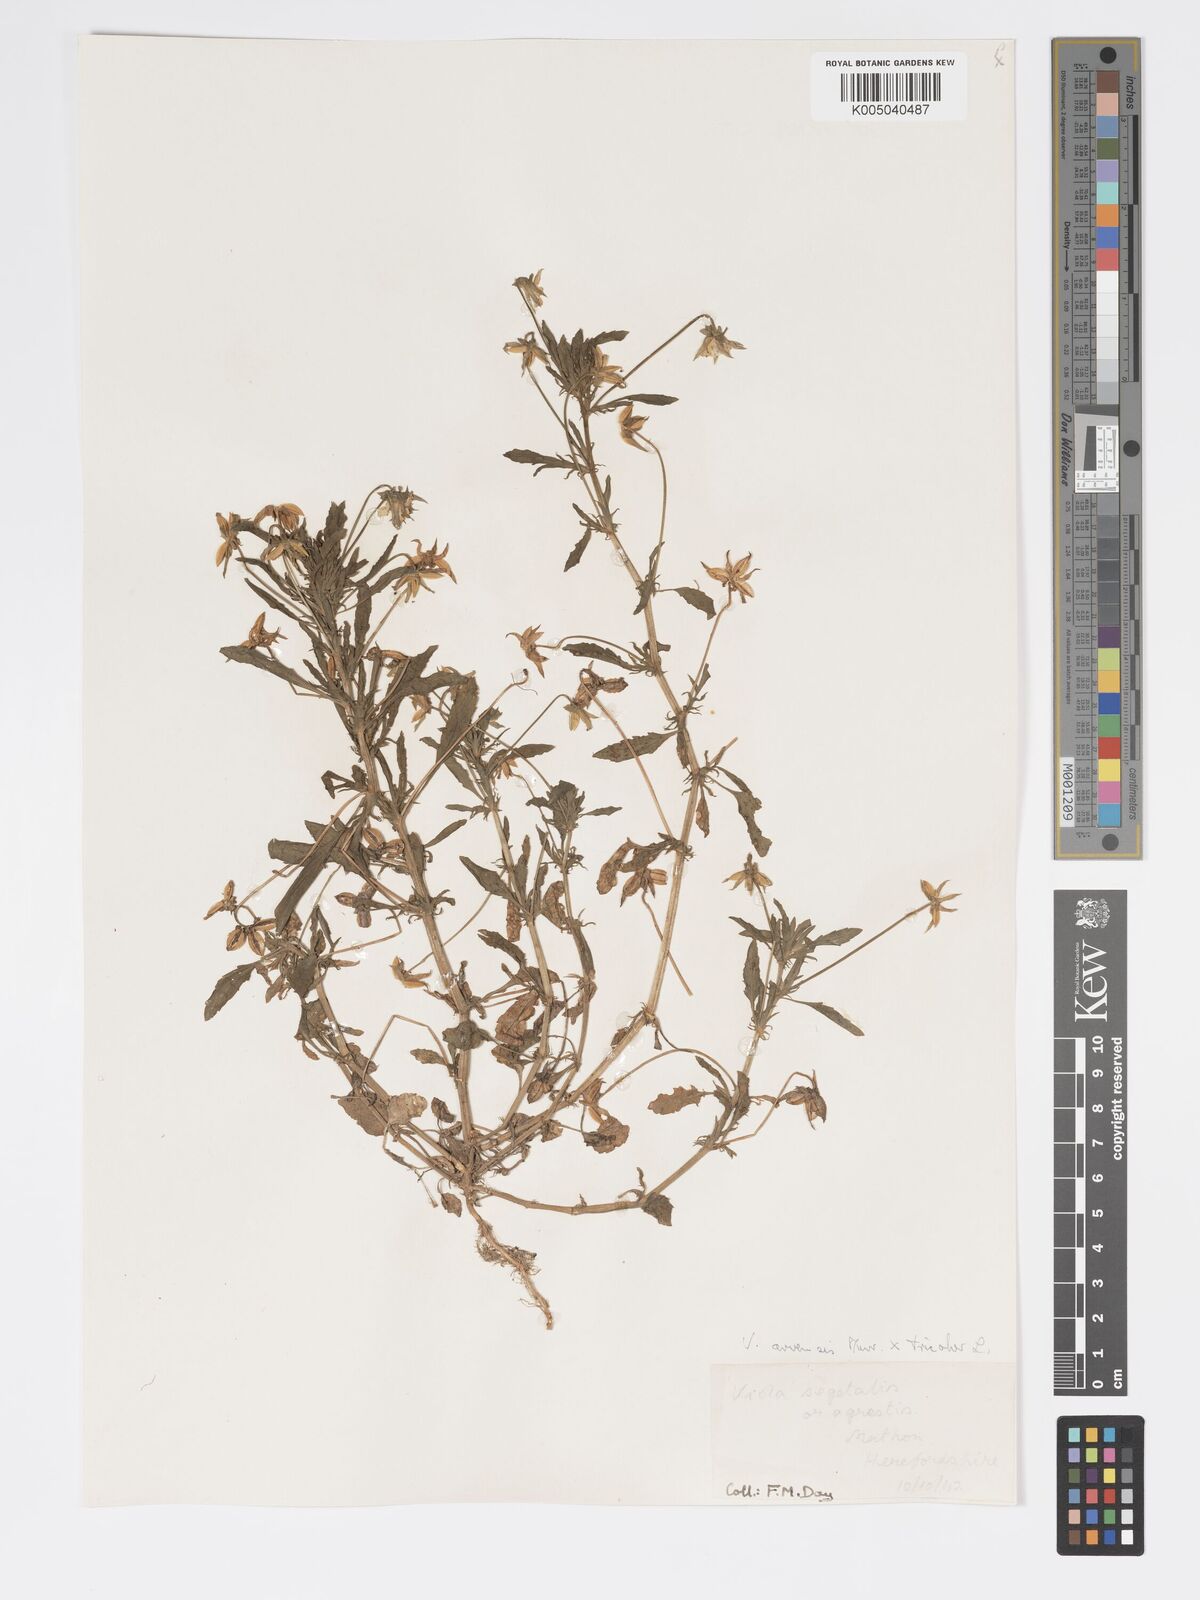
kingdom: Plantae
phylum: Tracheophyta
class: Magnoliopsida
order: Malpighiales
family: Violaceae
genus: Viola
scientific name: Viola arvensis
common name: Field pansy
